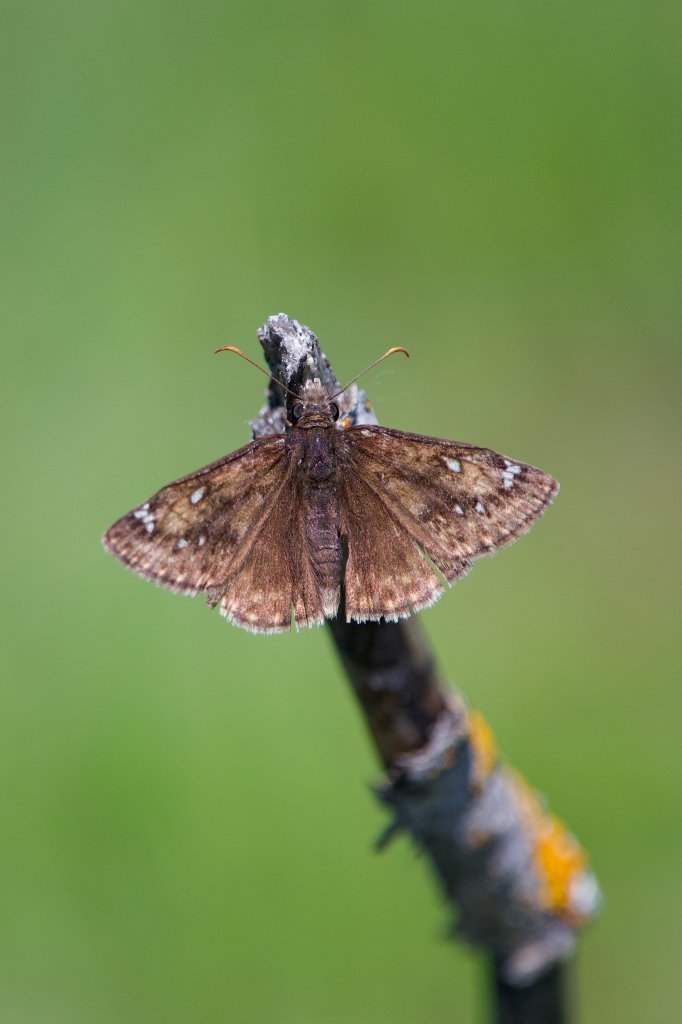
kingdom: Animalia
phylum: Arthropoda
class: Insecta
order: Lepidoptera
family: Hesperiidae
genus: Gesta
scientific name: Gesta
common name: Juvenal's Duskywing
